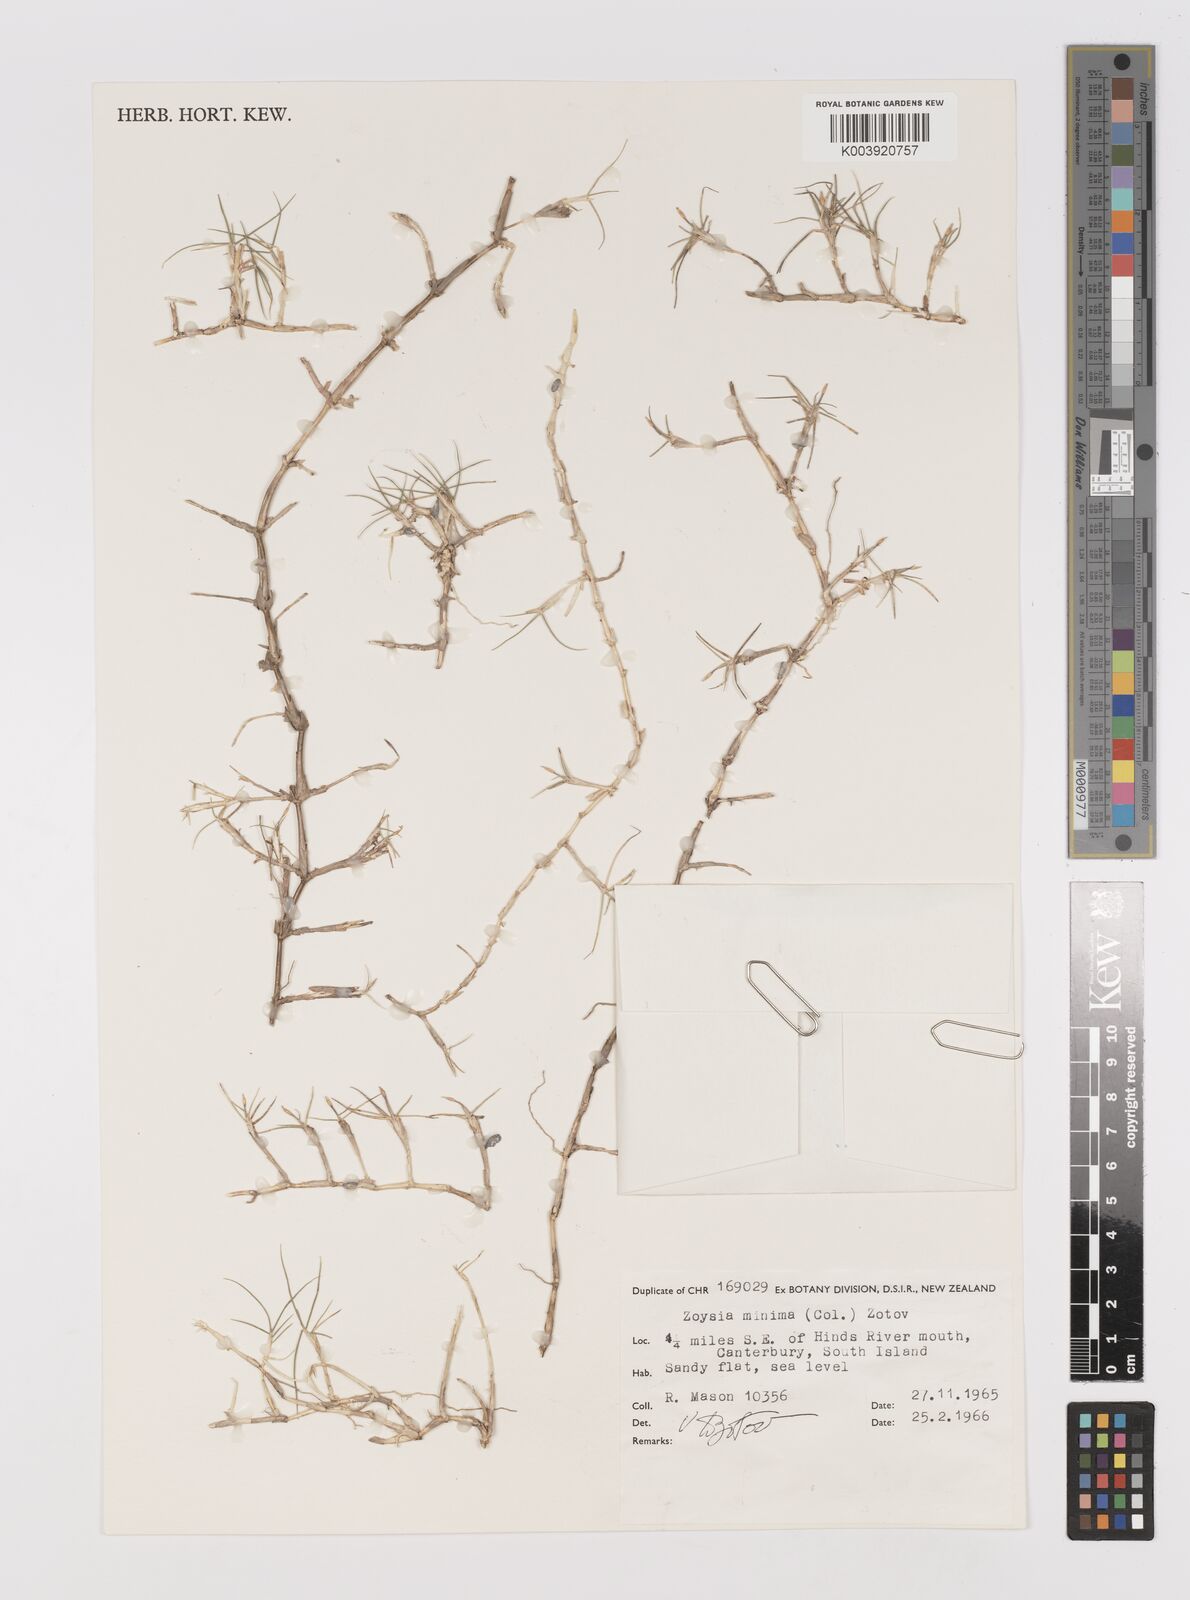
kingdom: Plantae
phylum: Tracheophyta
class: Liliopsida
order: Poales
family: Poaceae
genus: Zoysia
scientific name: Zoysia minima
